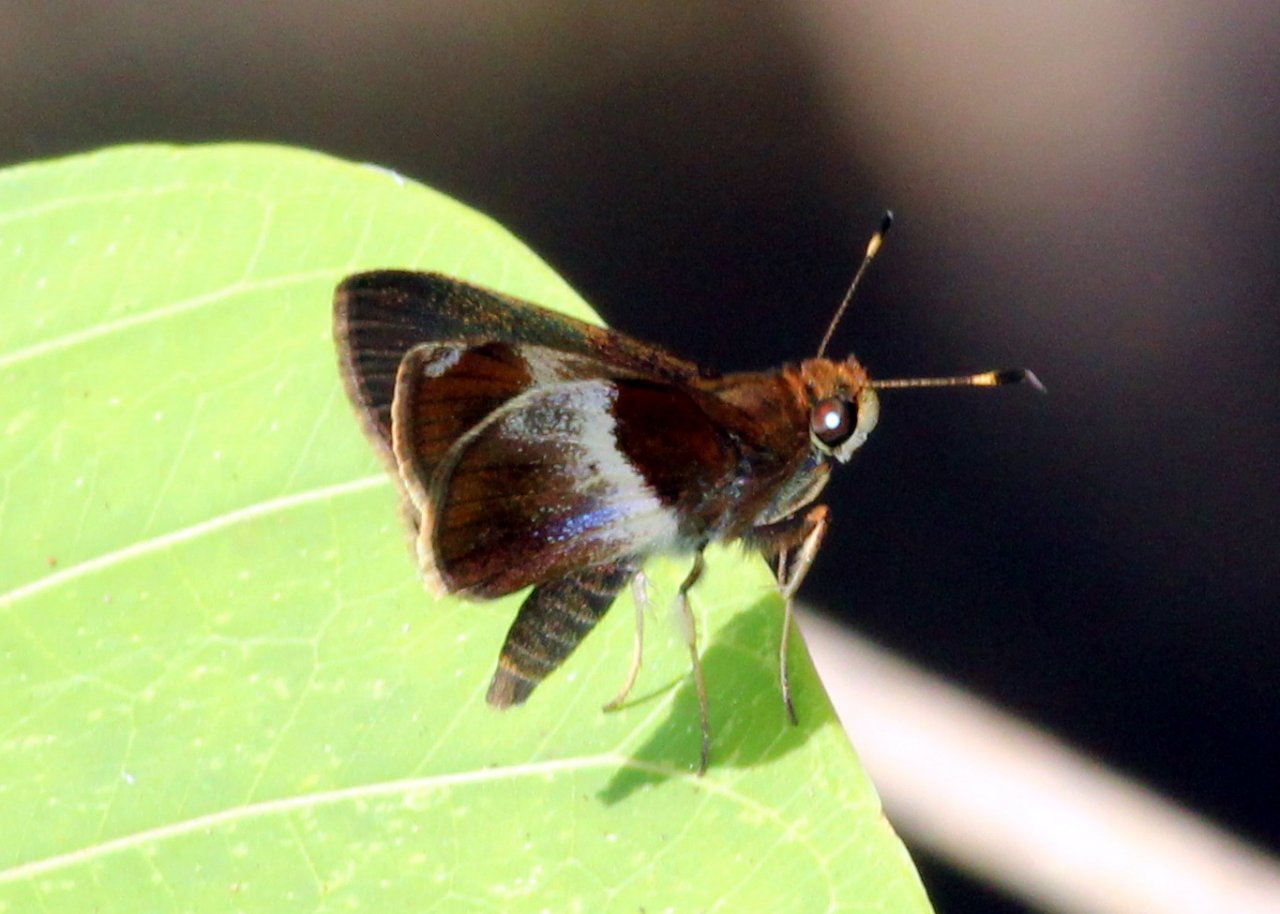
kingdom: Animalia
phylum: Arthropoda
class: Insecta
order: Lepidoptera
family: Hesperiidae
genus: Moeris
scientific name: Moeris Remella vopiscus
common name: Cryptic Remella
